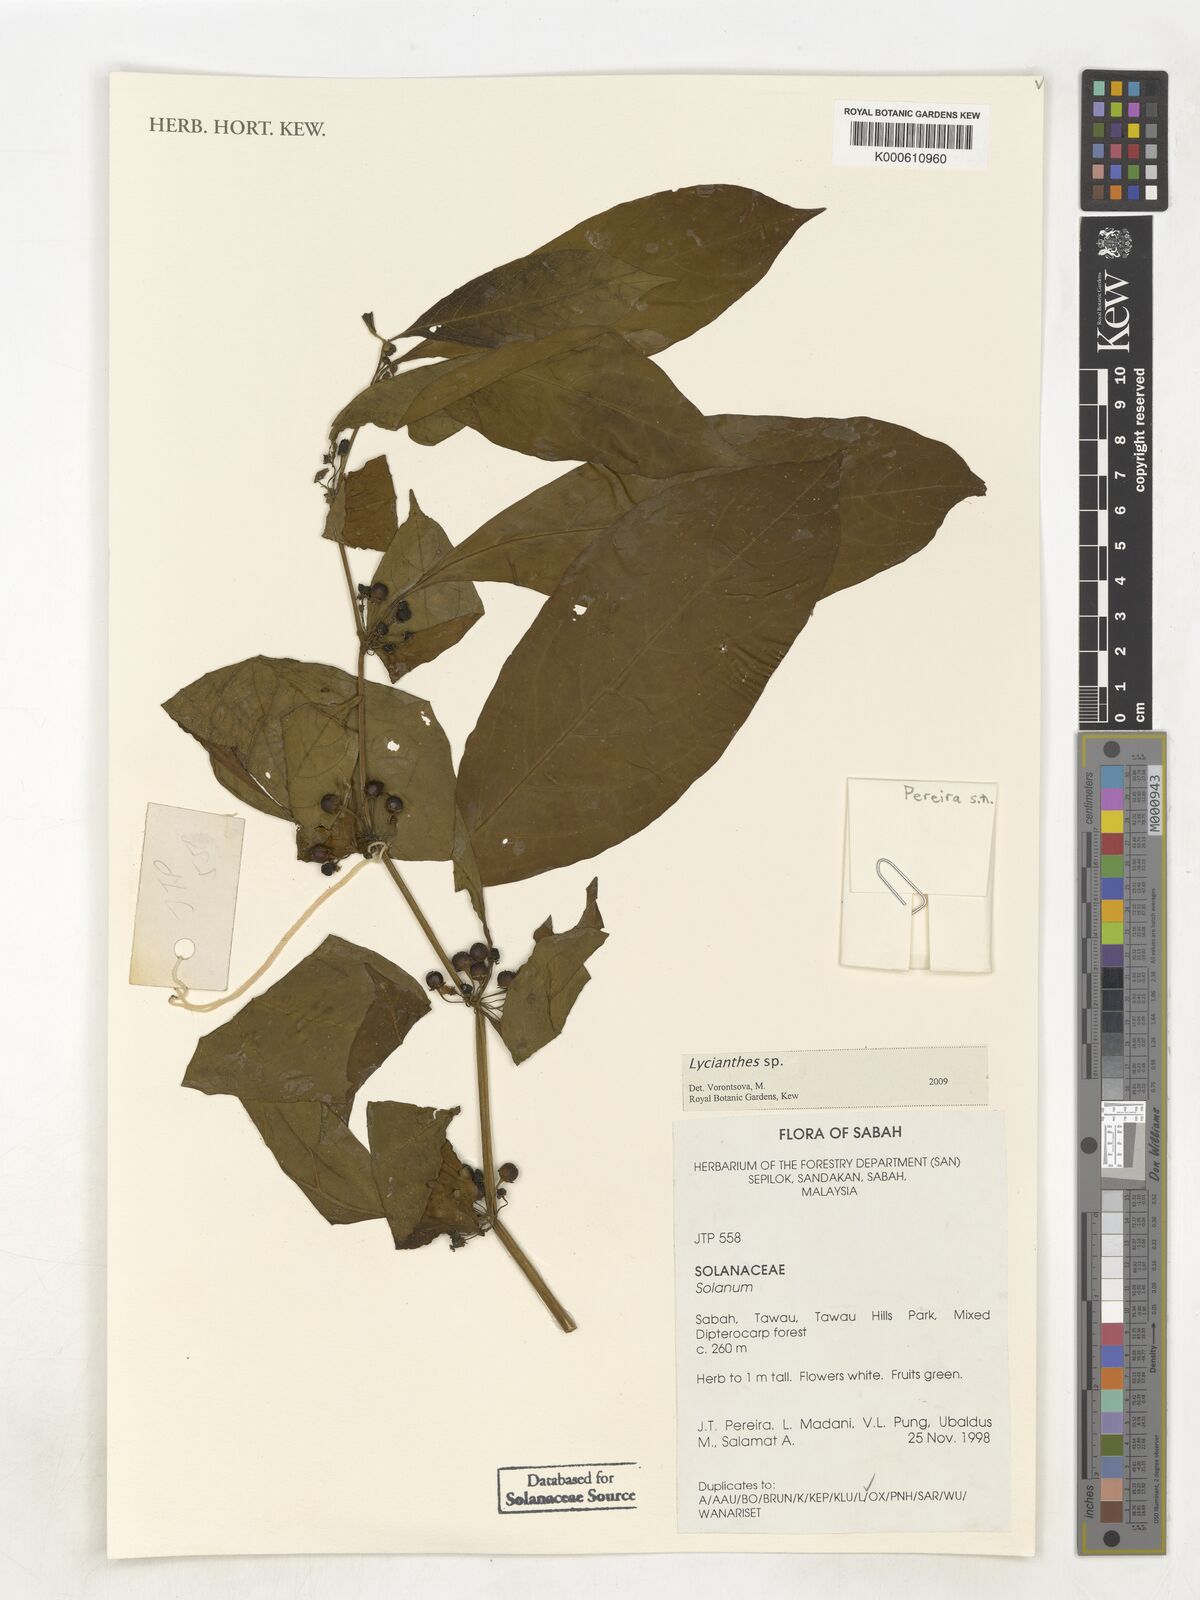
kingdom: Plantae
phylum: Tracheophyta
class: Magnoliopsida
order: Solanales
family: Solanaceae
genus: Lycianthes
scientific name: Lycianthes
